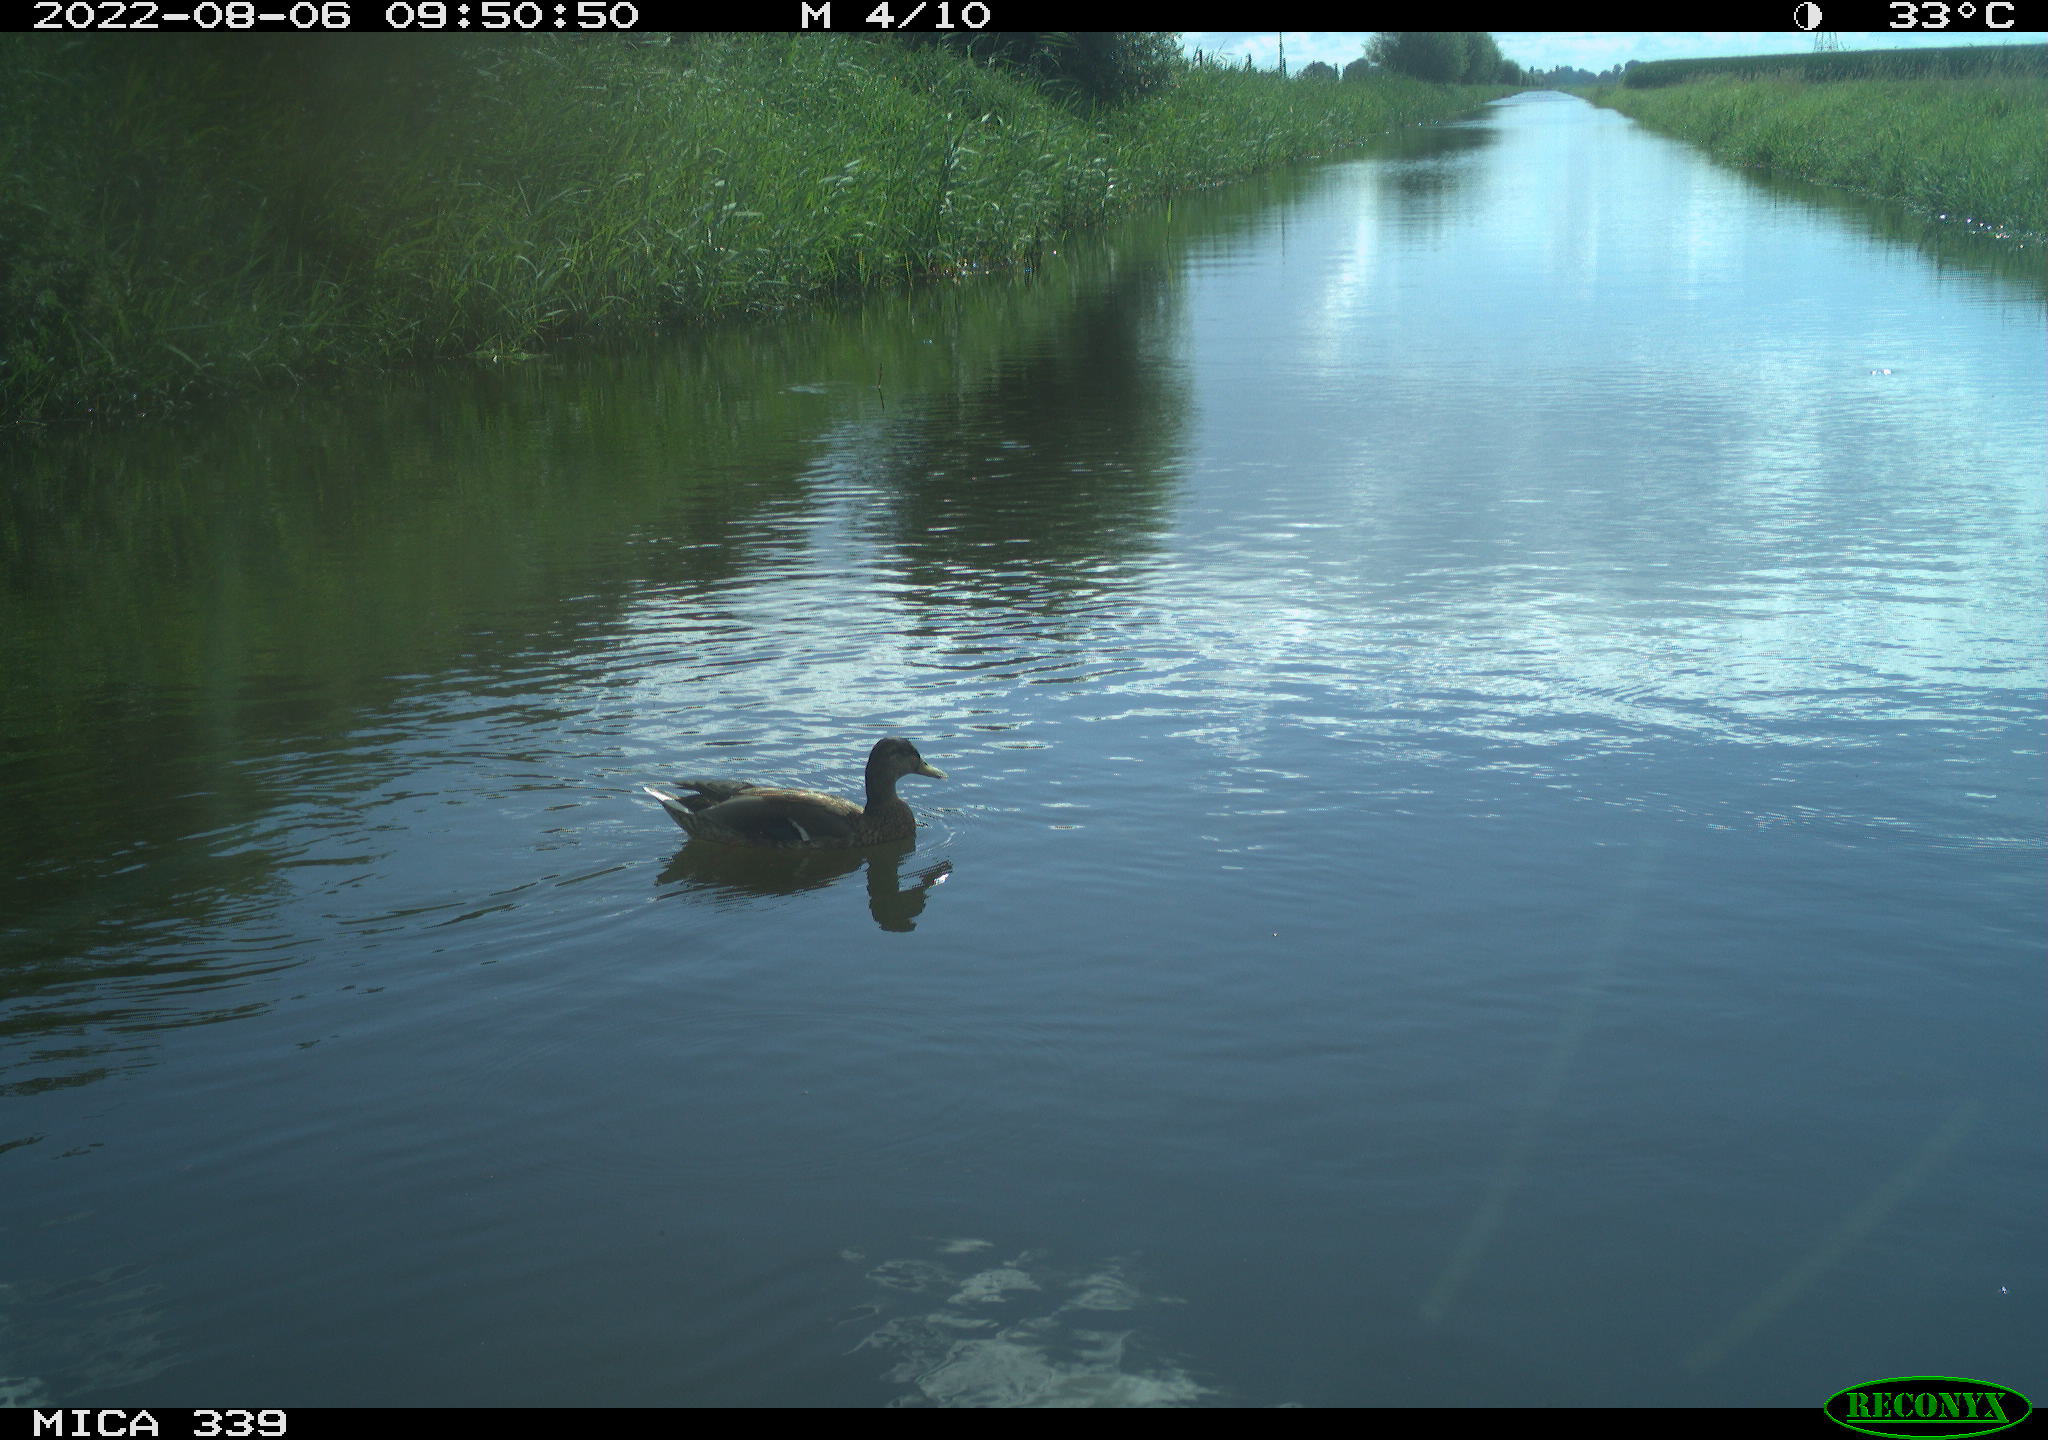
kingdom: Animalia
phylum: Chordata
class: Aves
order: Anseriformes
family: Anatidae
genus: Anas
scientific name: Anas platyrhynchos
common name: Mallard
